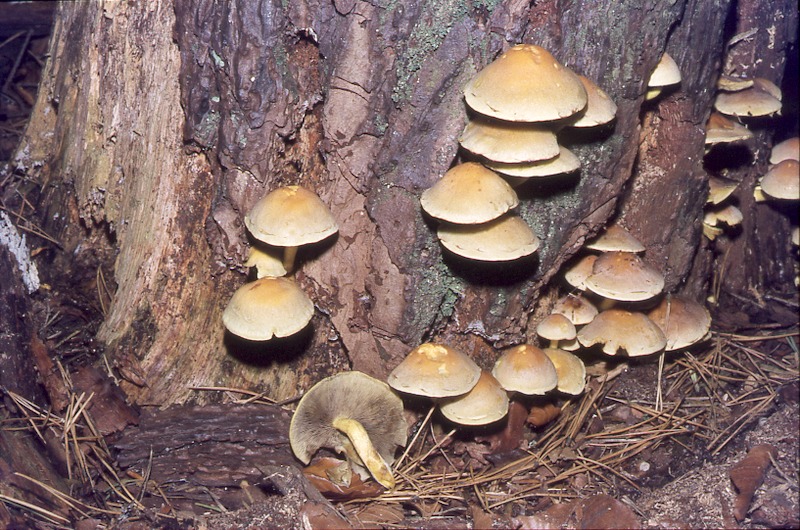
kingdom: Fungi
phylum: Basidiomycota
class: Agaricomycetes
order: Agaricales
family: Strophariaceae
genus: Hypholoma
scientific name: Hypholoma fasciculare
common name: Sulphur tuft
